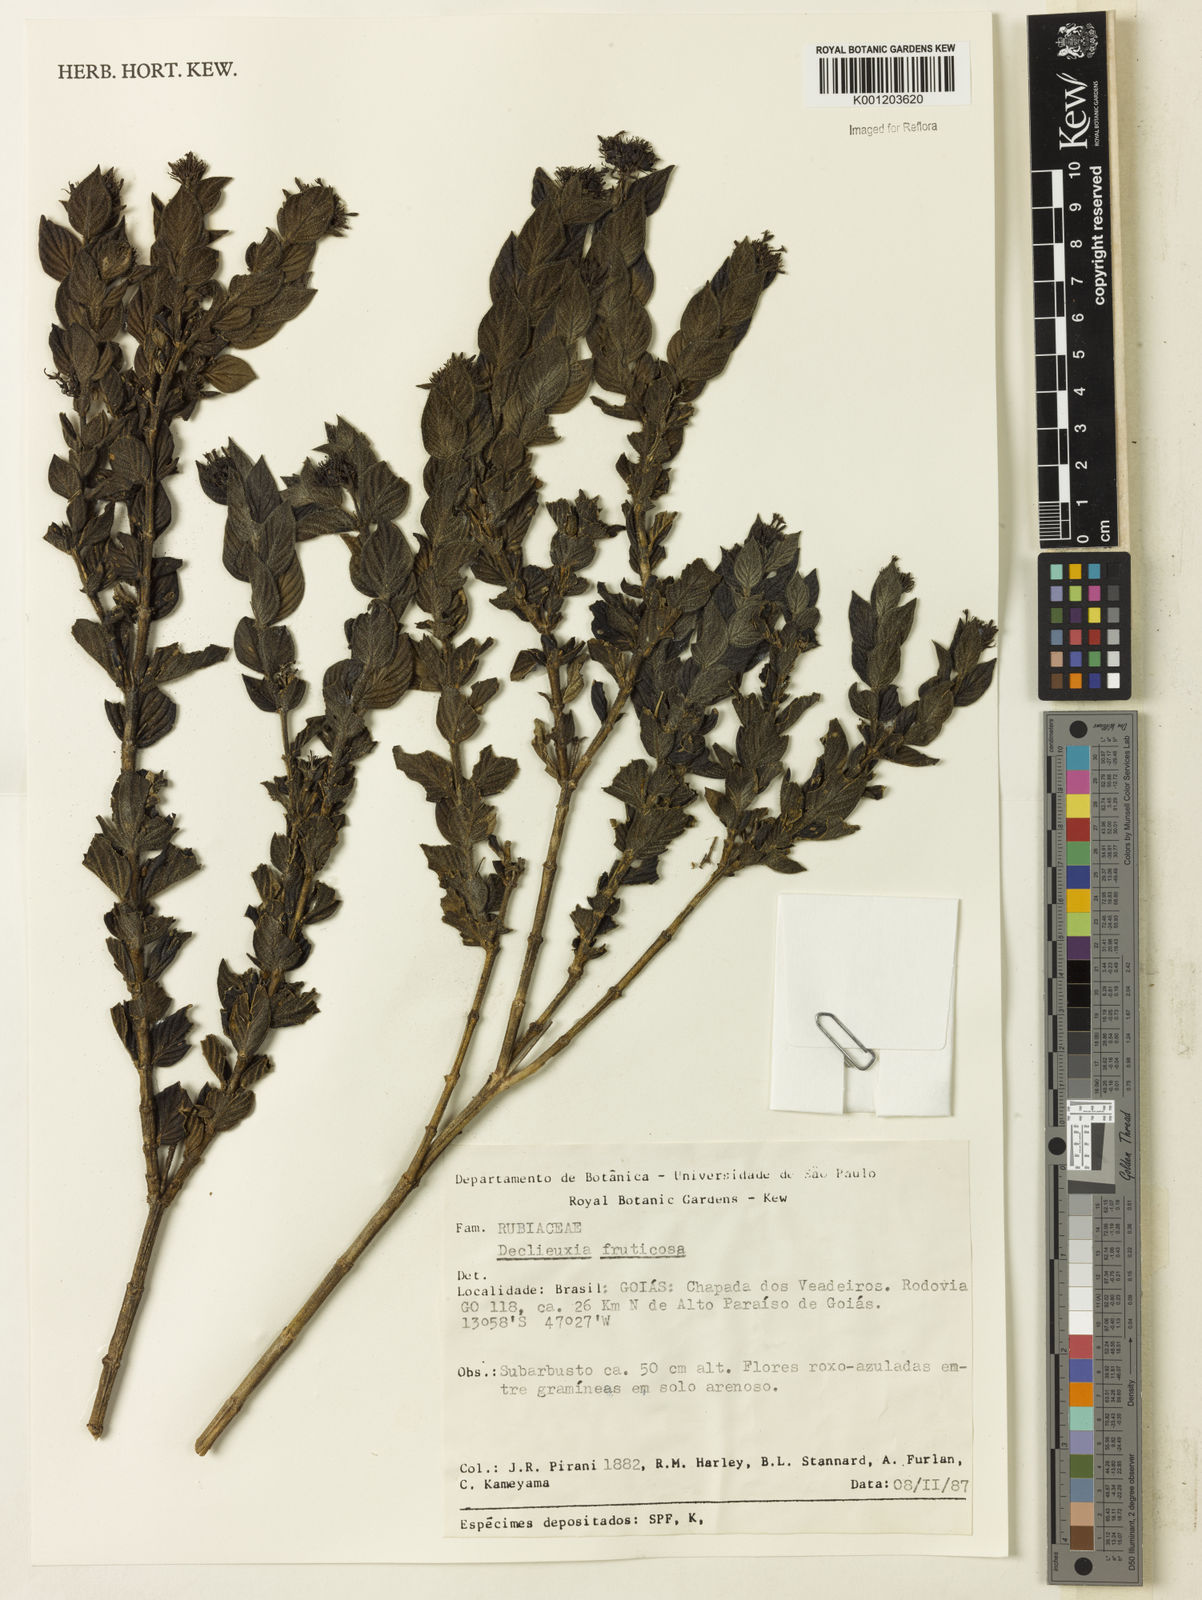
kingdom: Plantae
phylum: Tracheophyta
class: Magnoliopsida
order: Gentianales
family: Rubiaceae
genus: Declieuxia
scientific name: Declieuxia fruticosa
